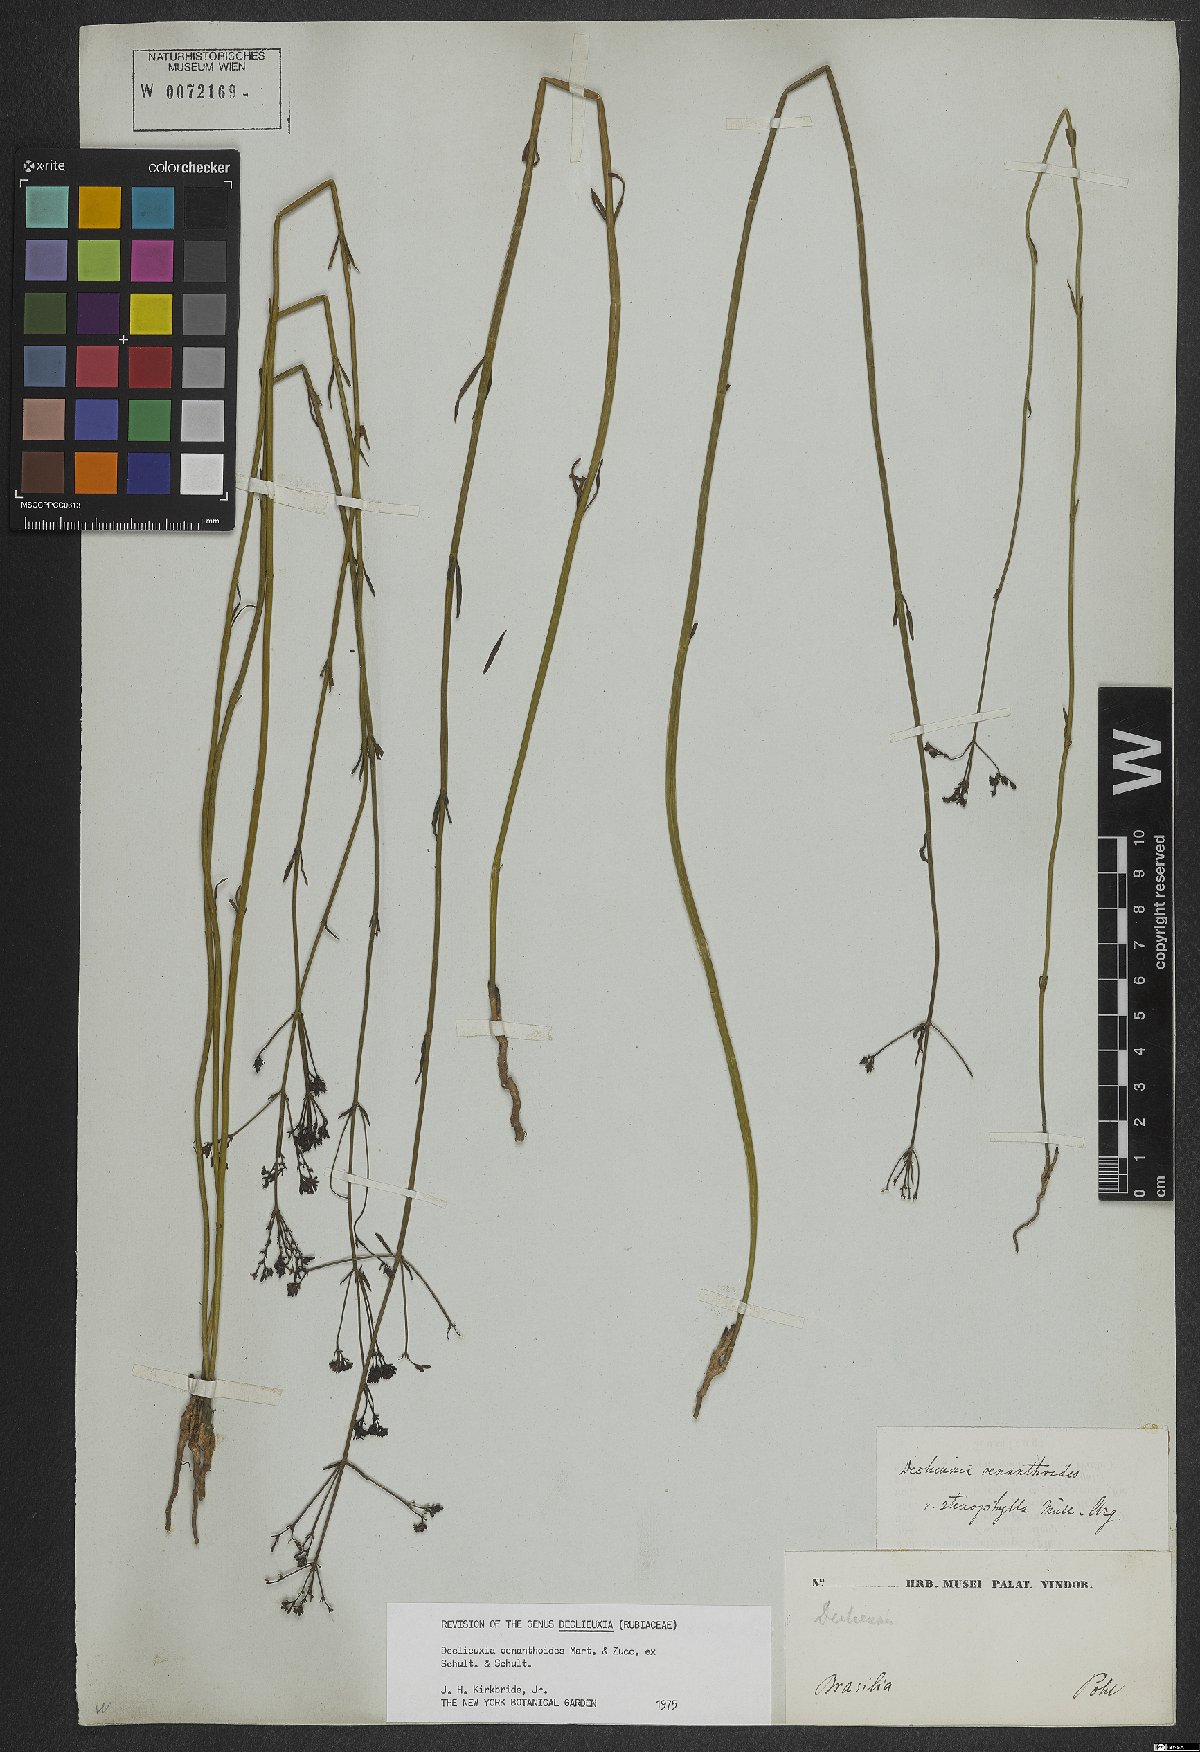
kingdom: Plantae
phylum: Tracheophyta
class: Magnoliopsida
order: Gentianales
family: Rubiaceae
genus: Declieuxia
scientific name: Declieuxia oenanthoides
